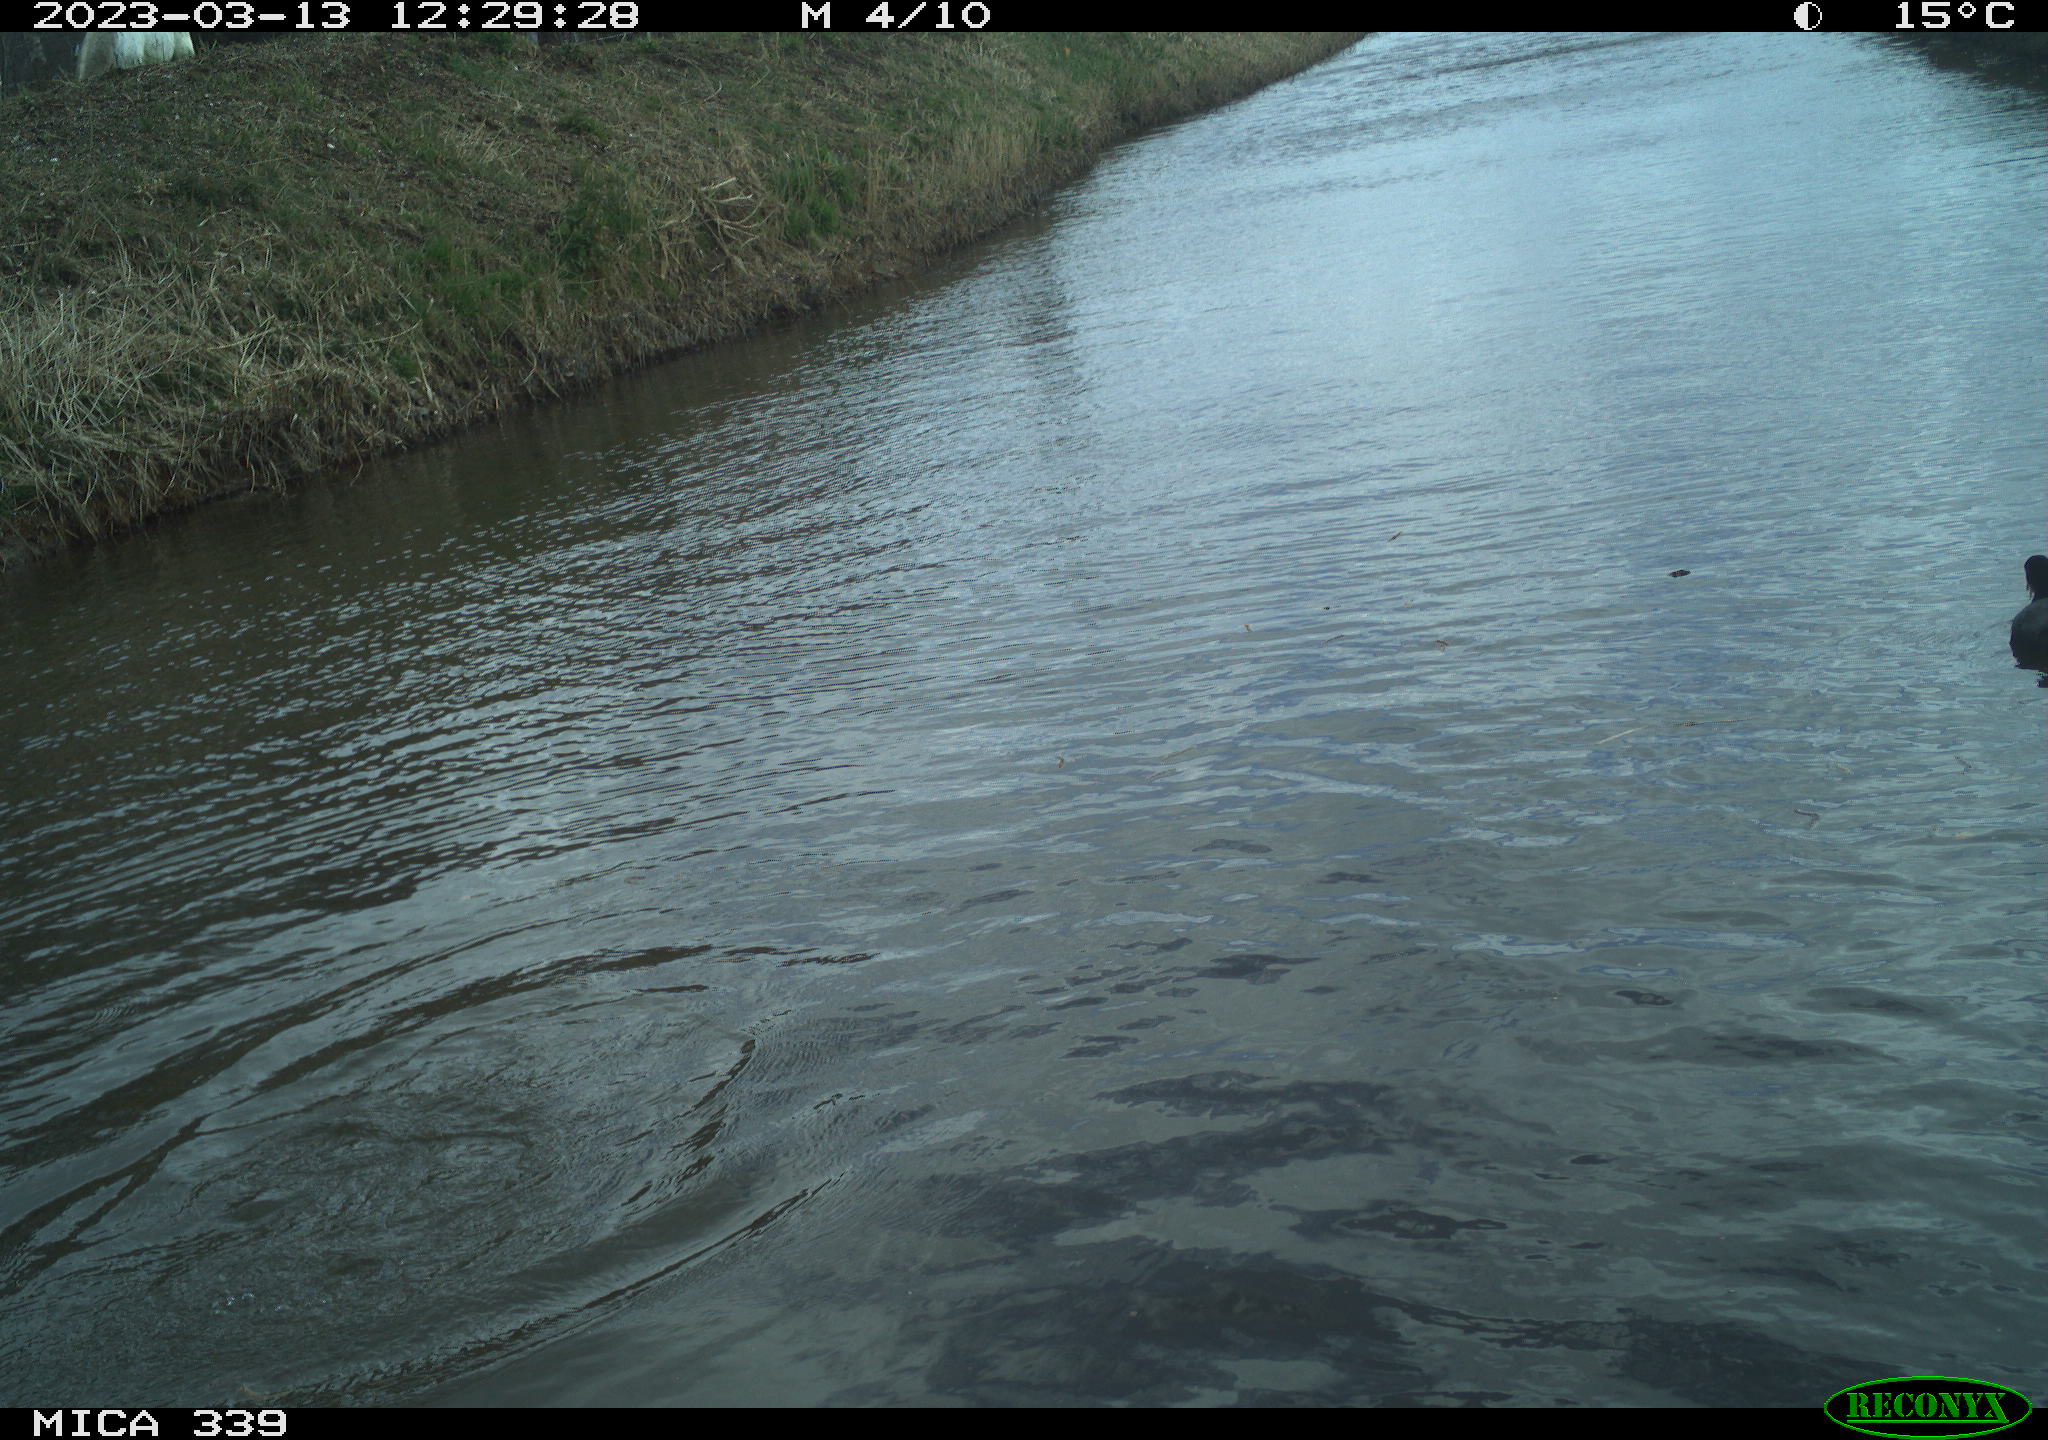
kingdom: Animalia
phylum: Chordata
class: Aves
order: Suliformes
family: Phalacrocoracidae
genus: Phalacrocorax
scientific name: Phalacrocorax carbo
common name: Great cormorant
